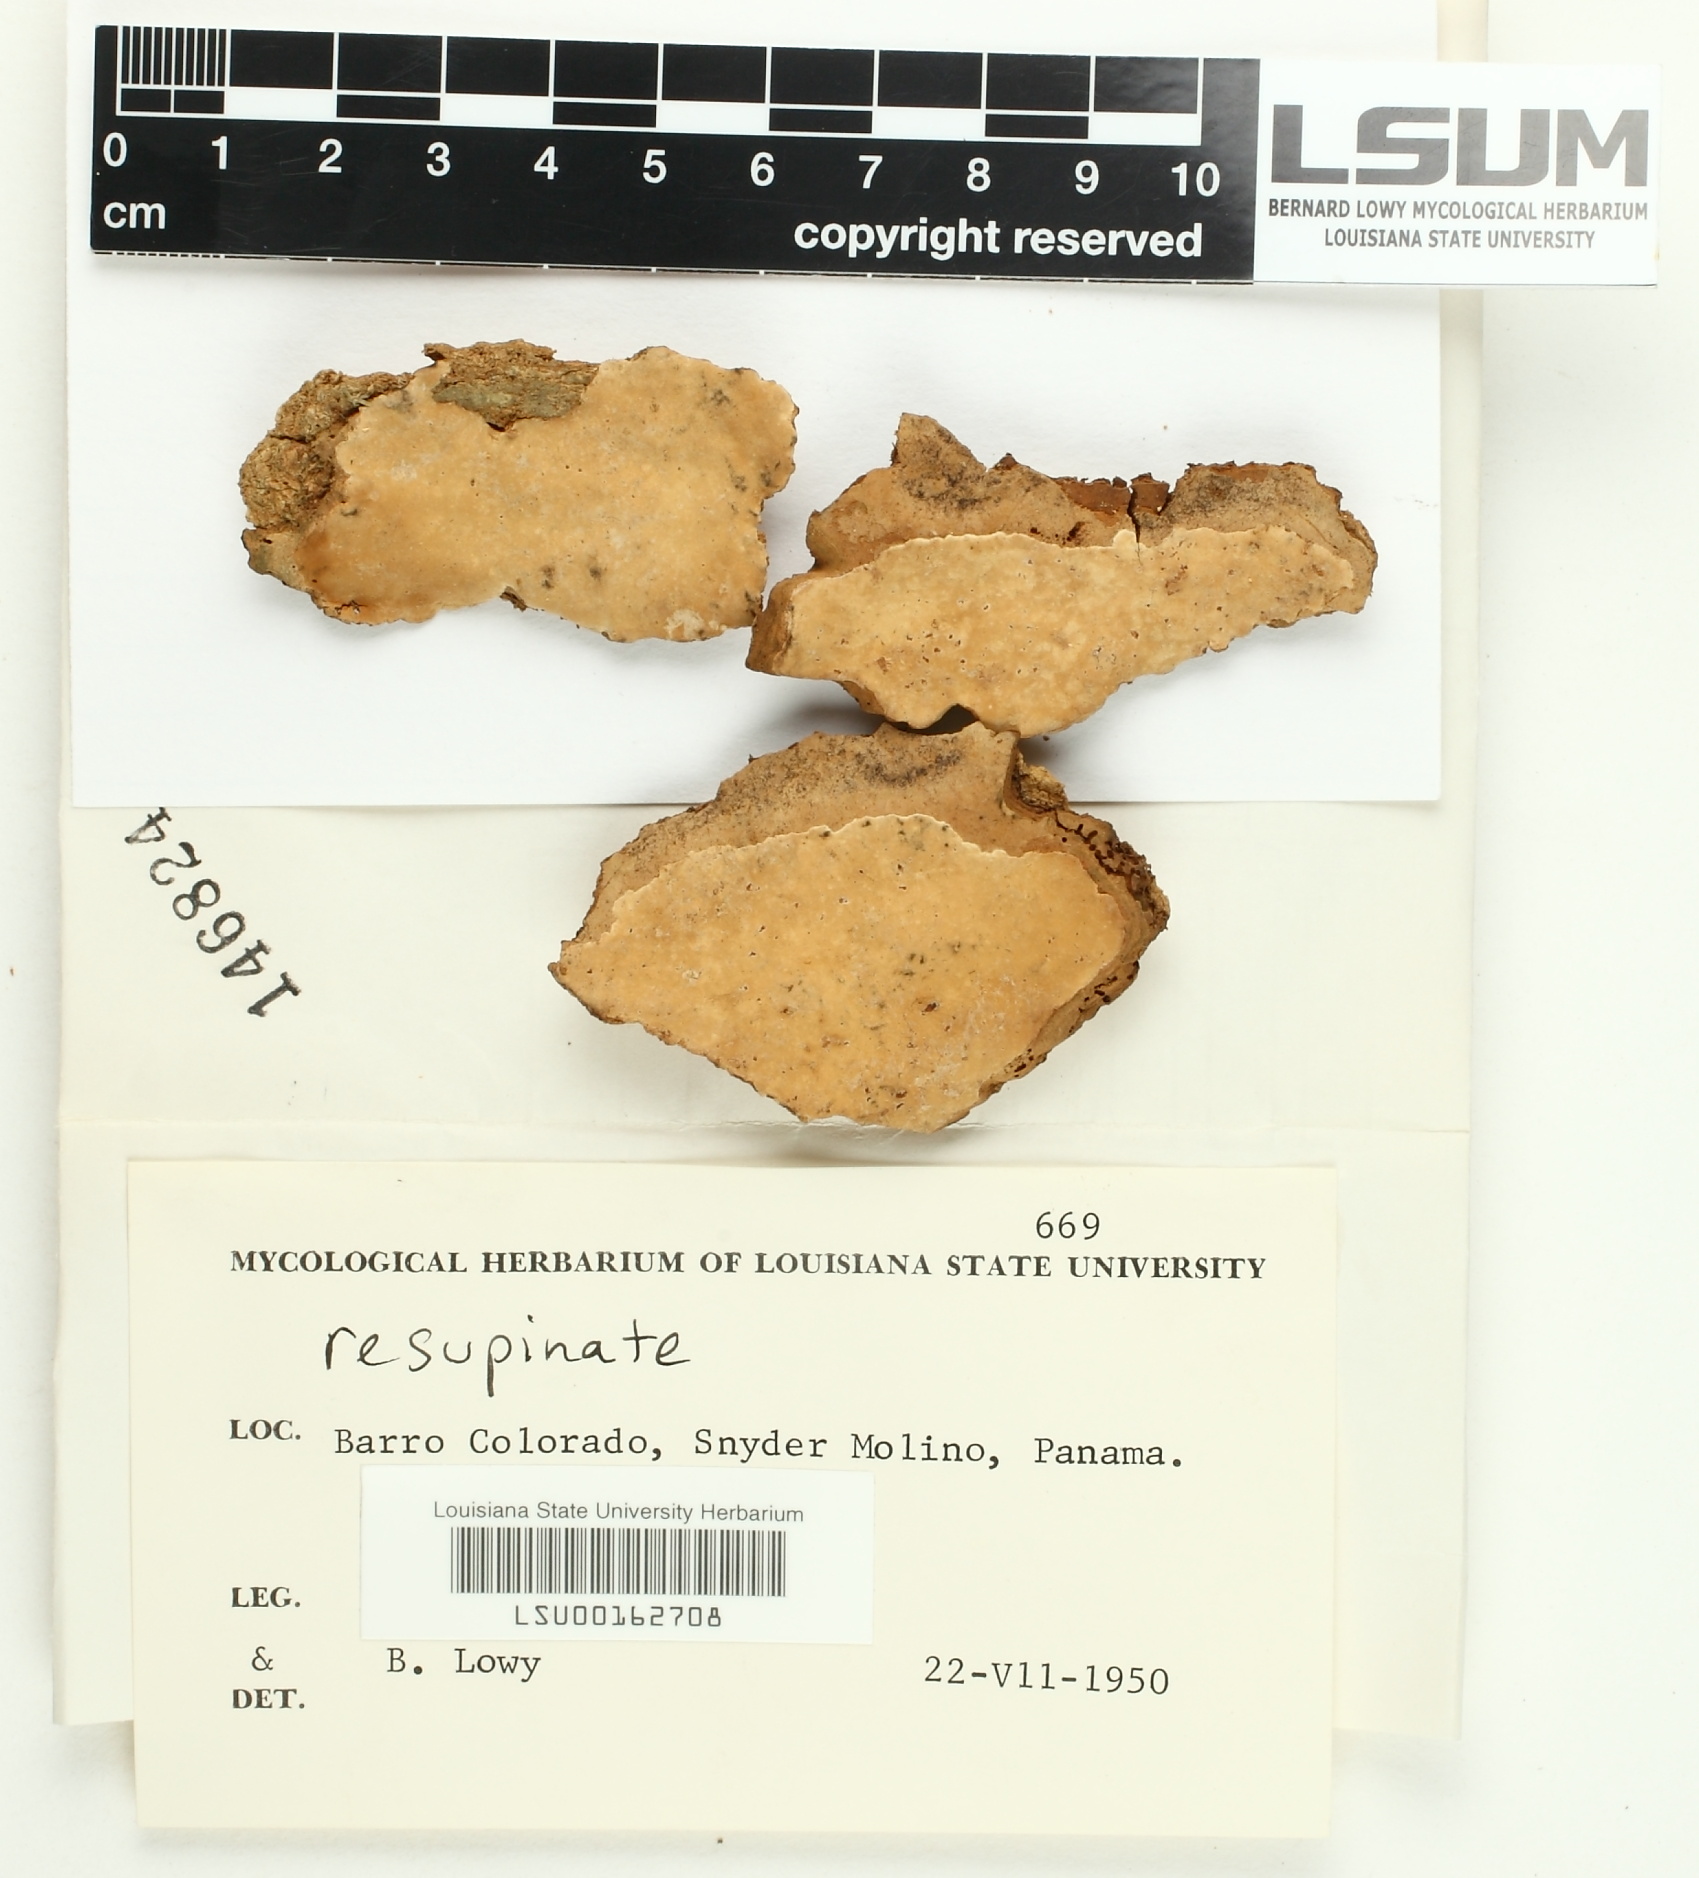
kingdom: Fungi
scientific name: Fungi
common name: Fungi
